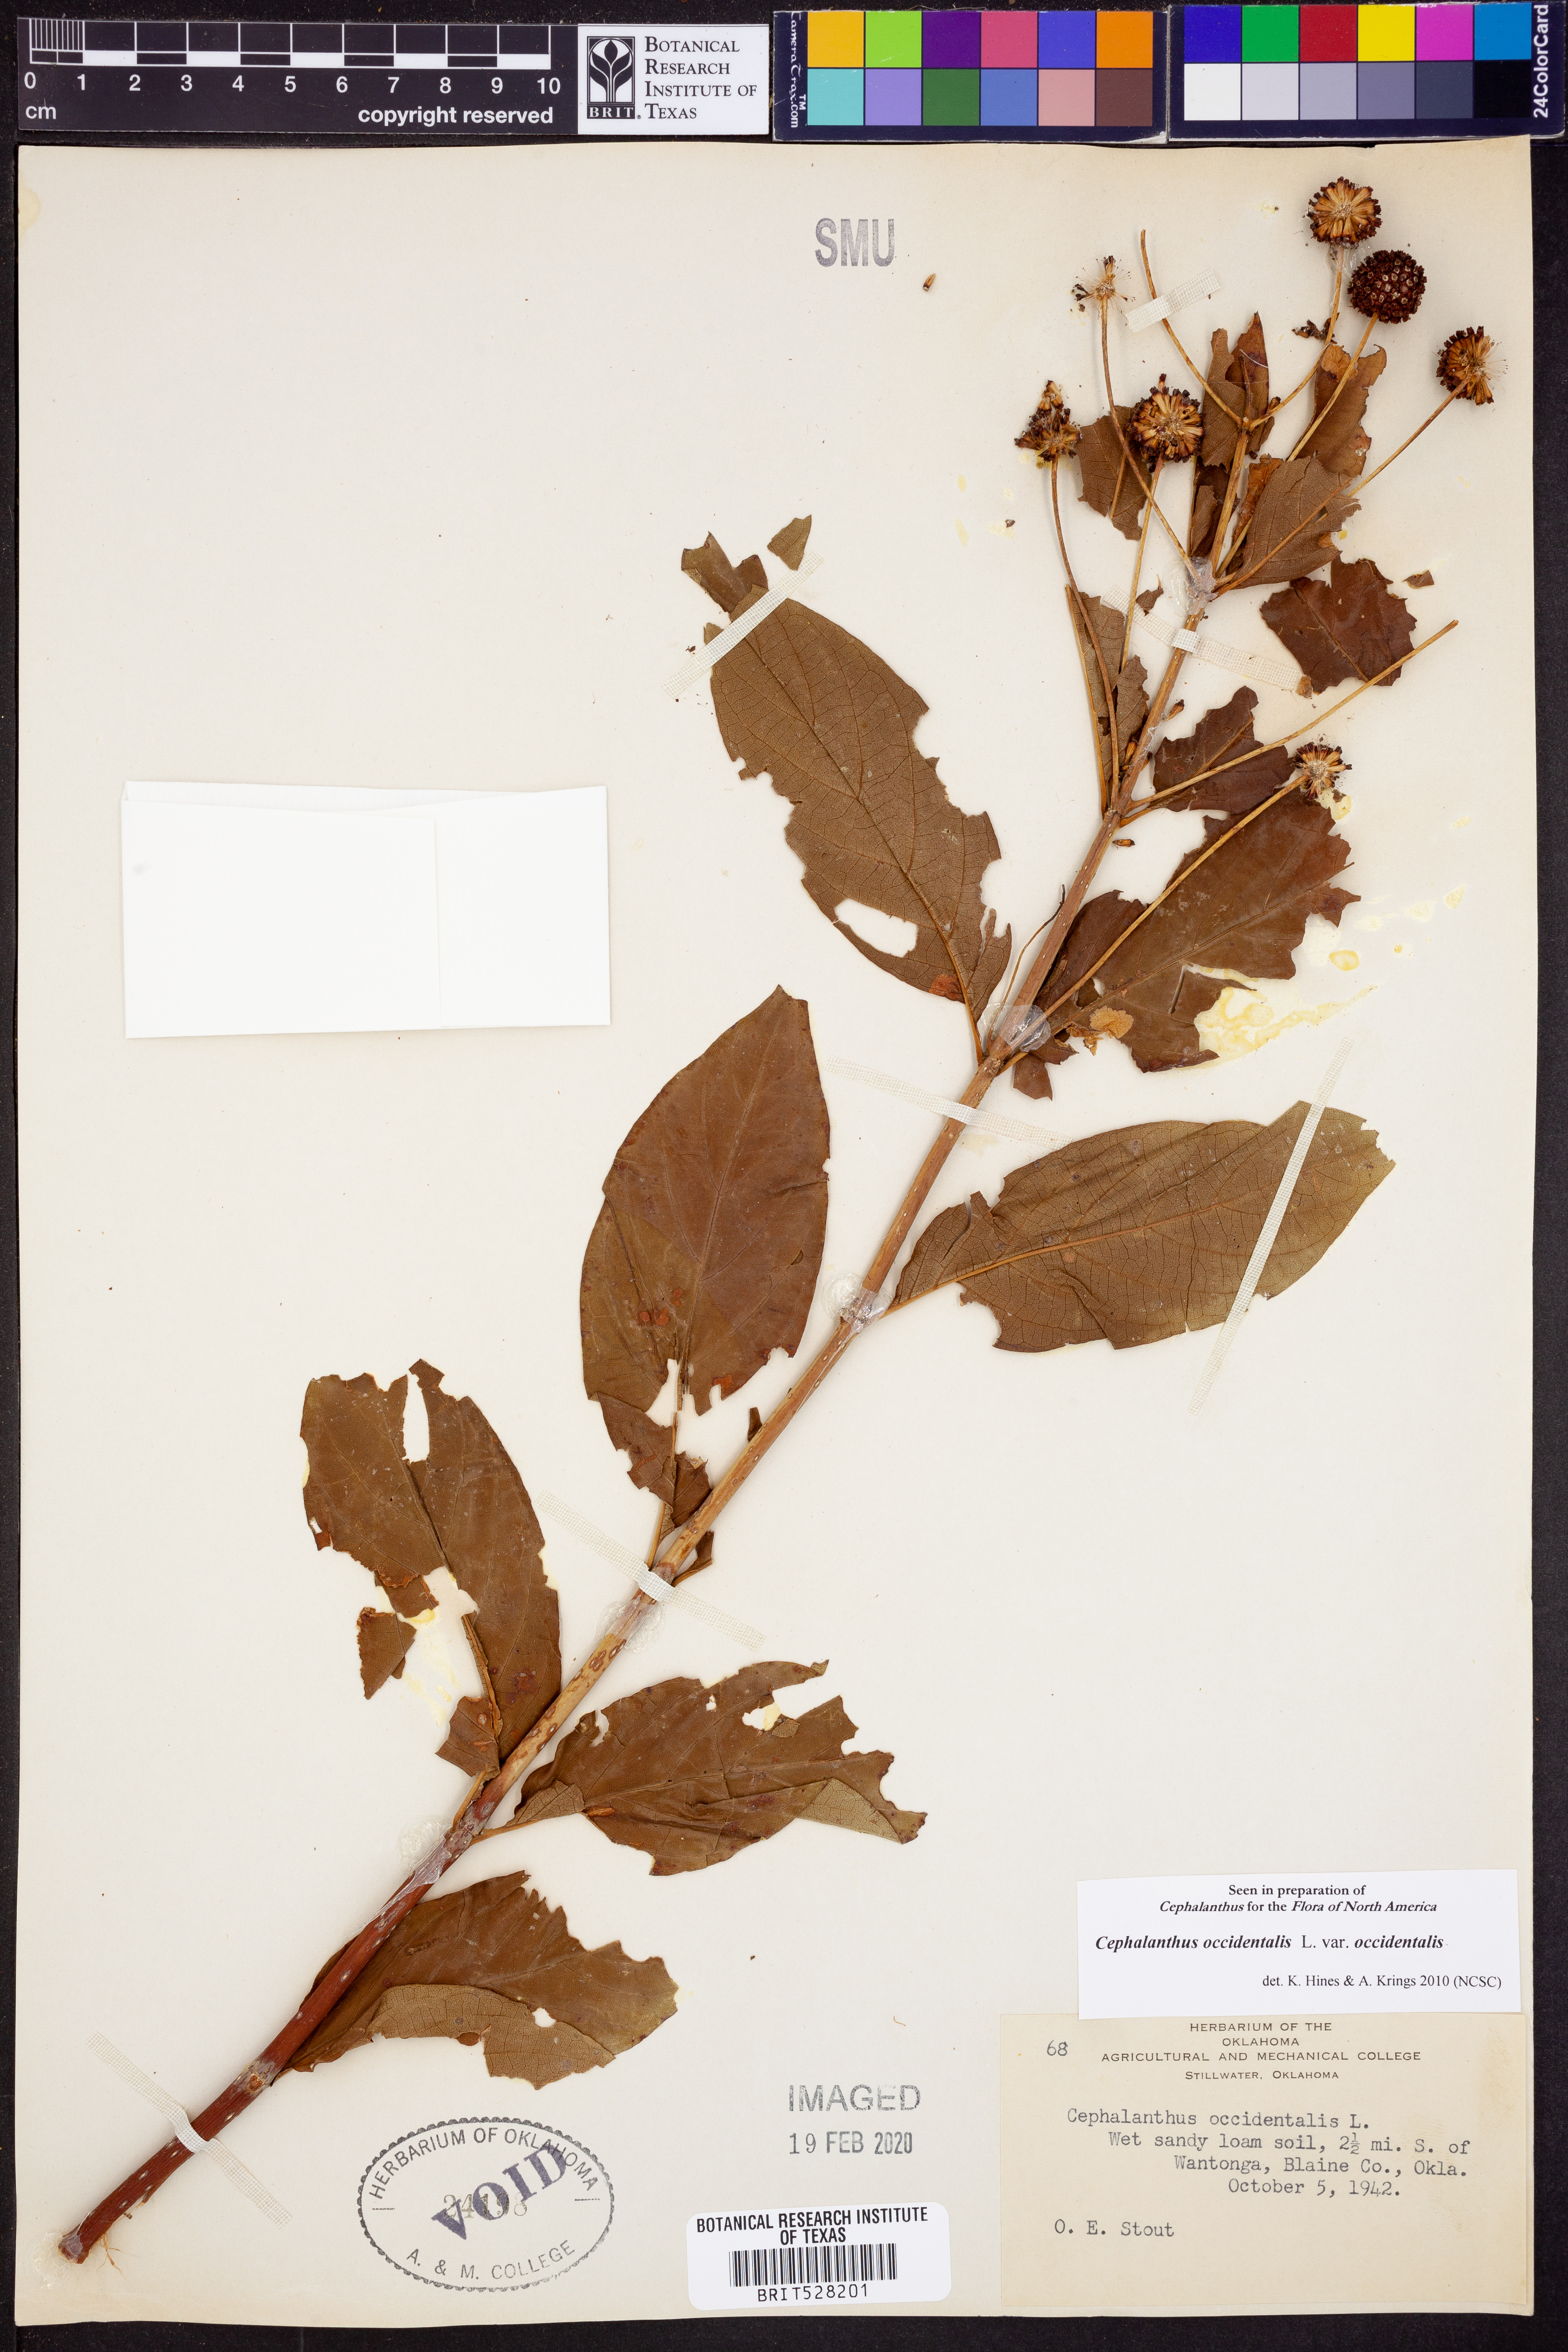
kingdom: Plantae
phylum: Tracheophyta
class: Magnoliopsida
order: Gentianales
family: Rubiaceae
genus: Cephalanthus
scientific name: Cephalanthus occidentalis
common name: Button-willow
